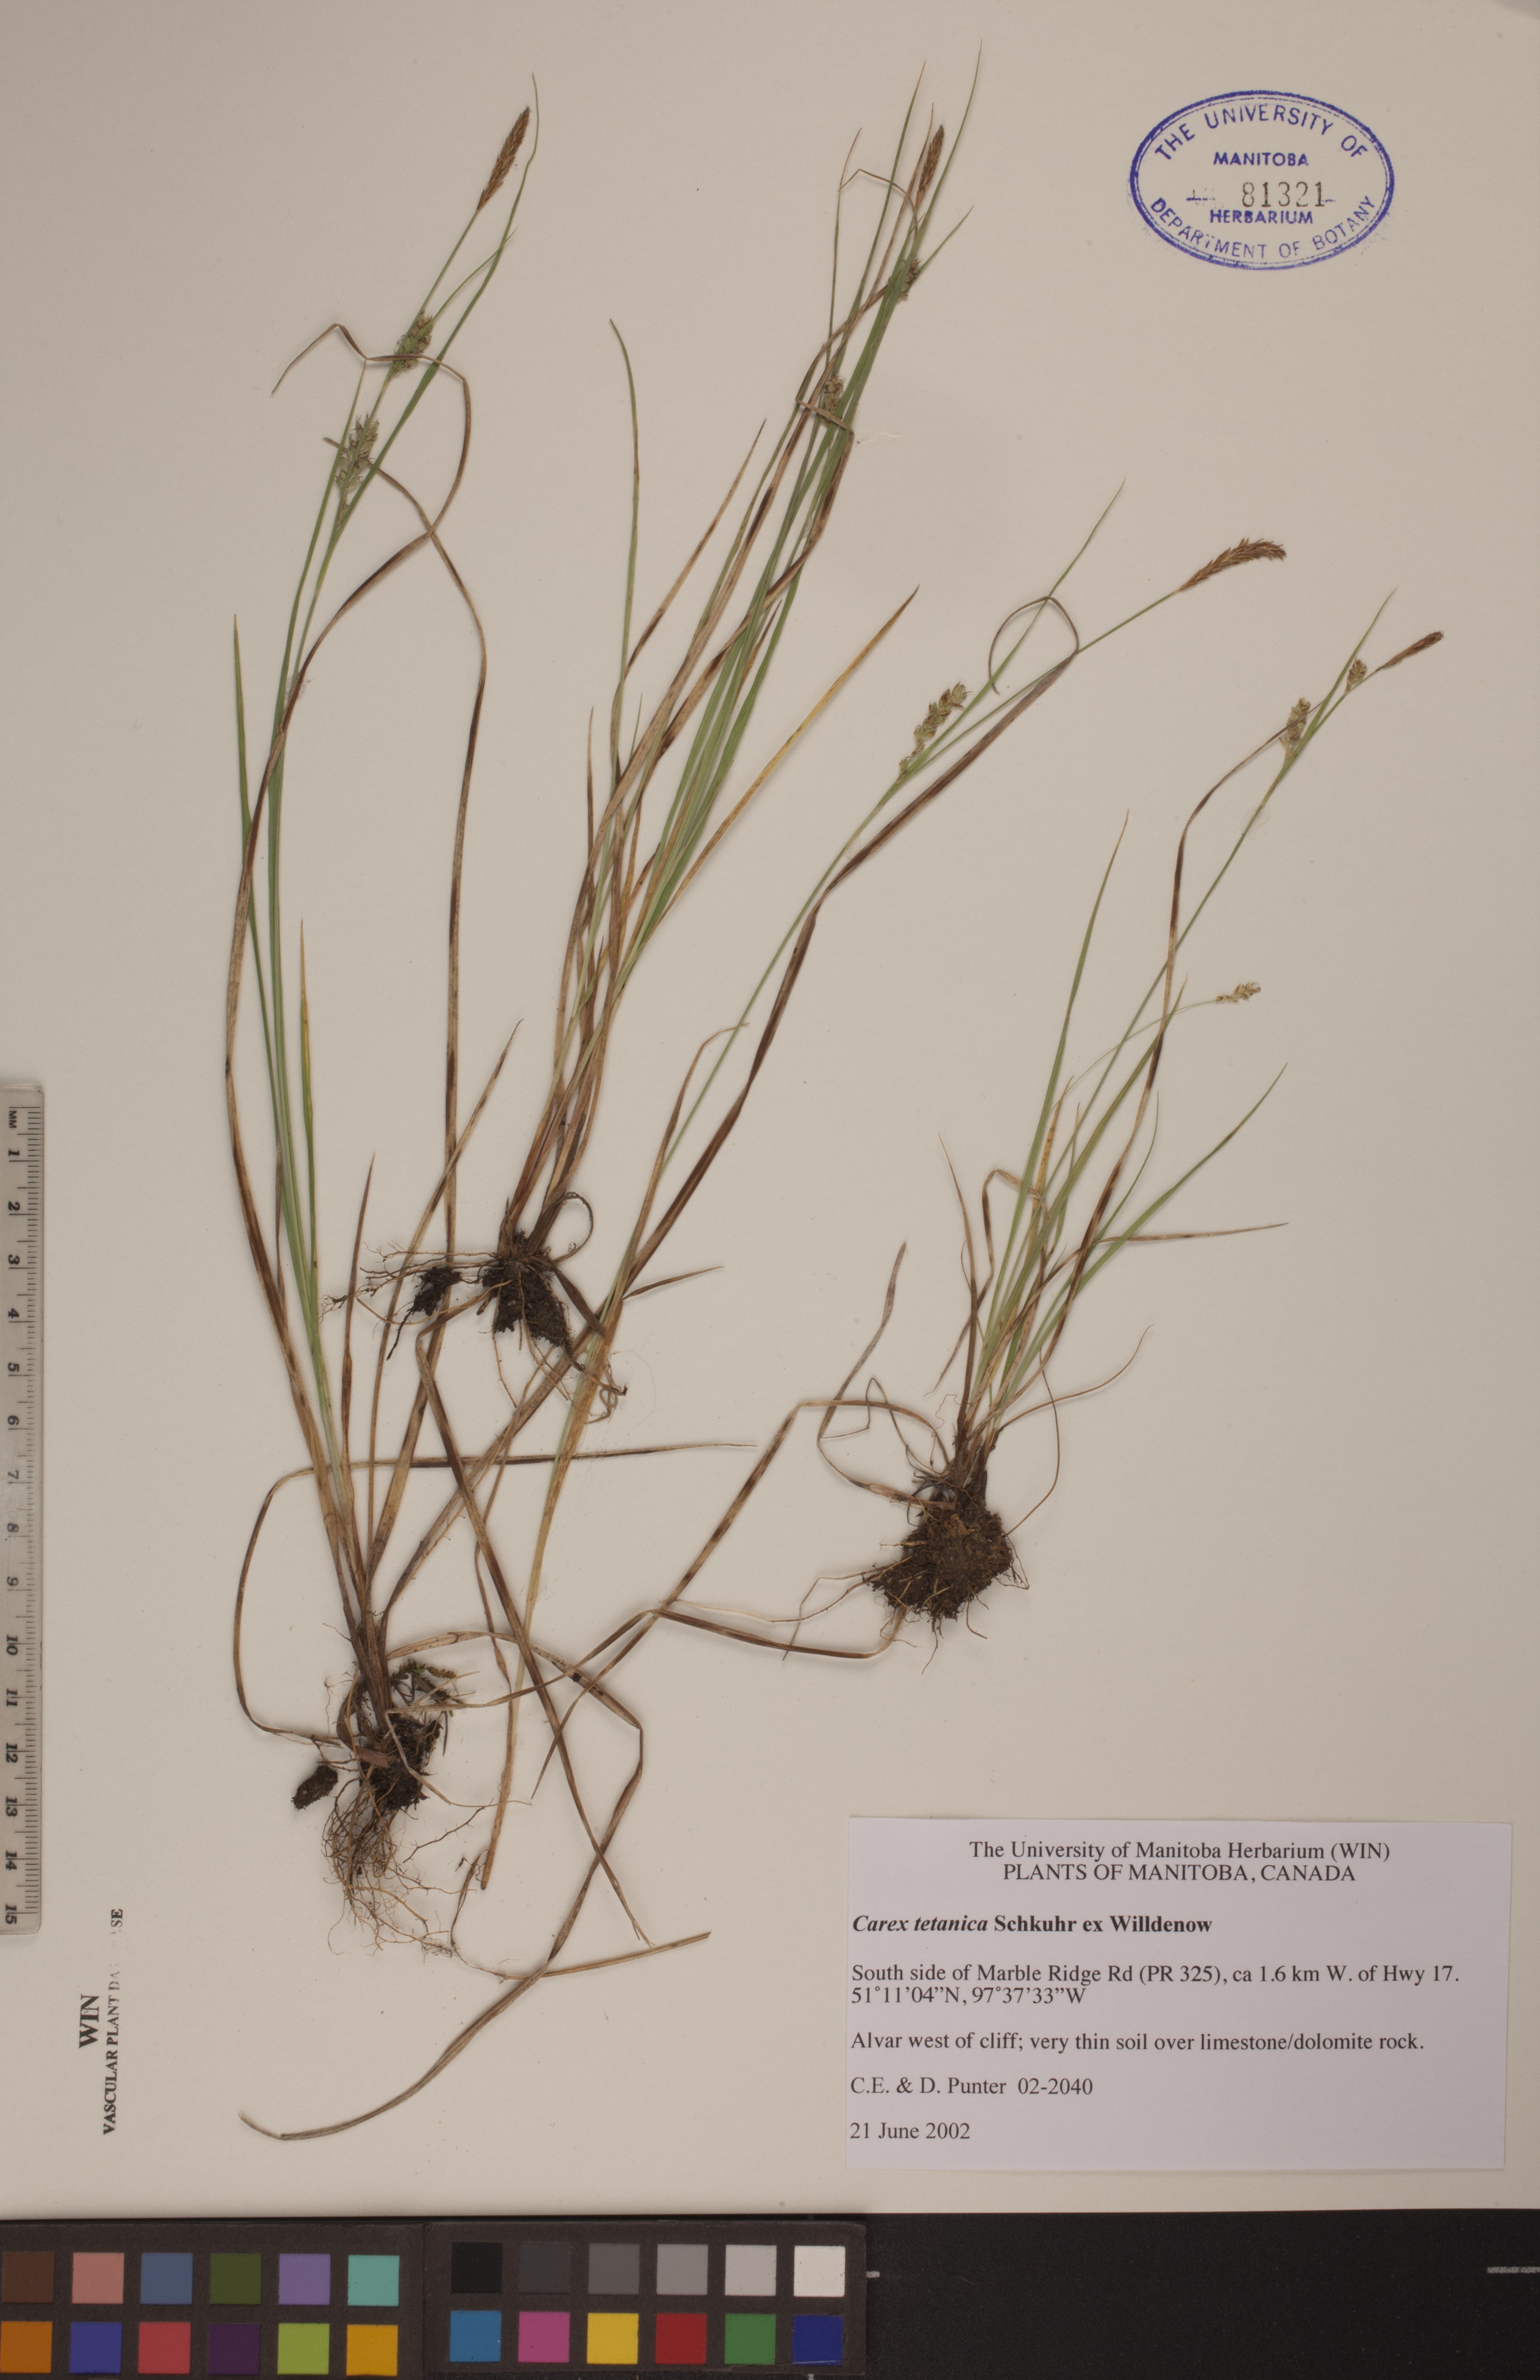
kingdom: Plantae
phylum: Tracheophyta
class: Liliopsida
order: Poales
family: Cyperaceae
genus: Carex
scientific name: Carex tetanica
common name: Rigid sedge
